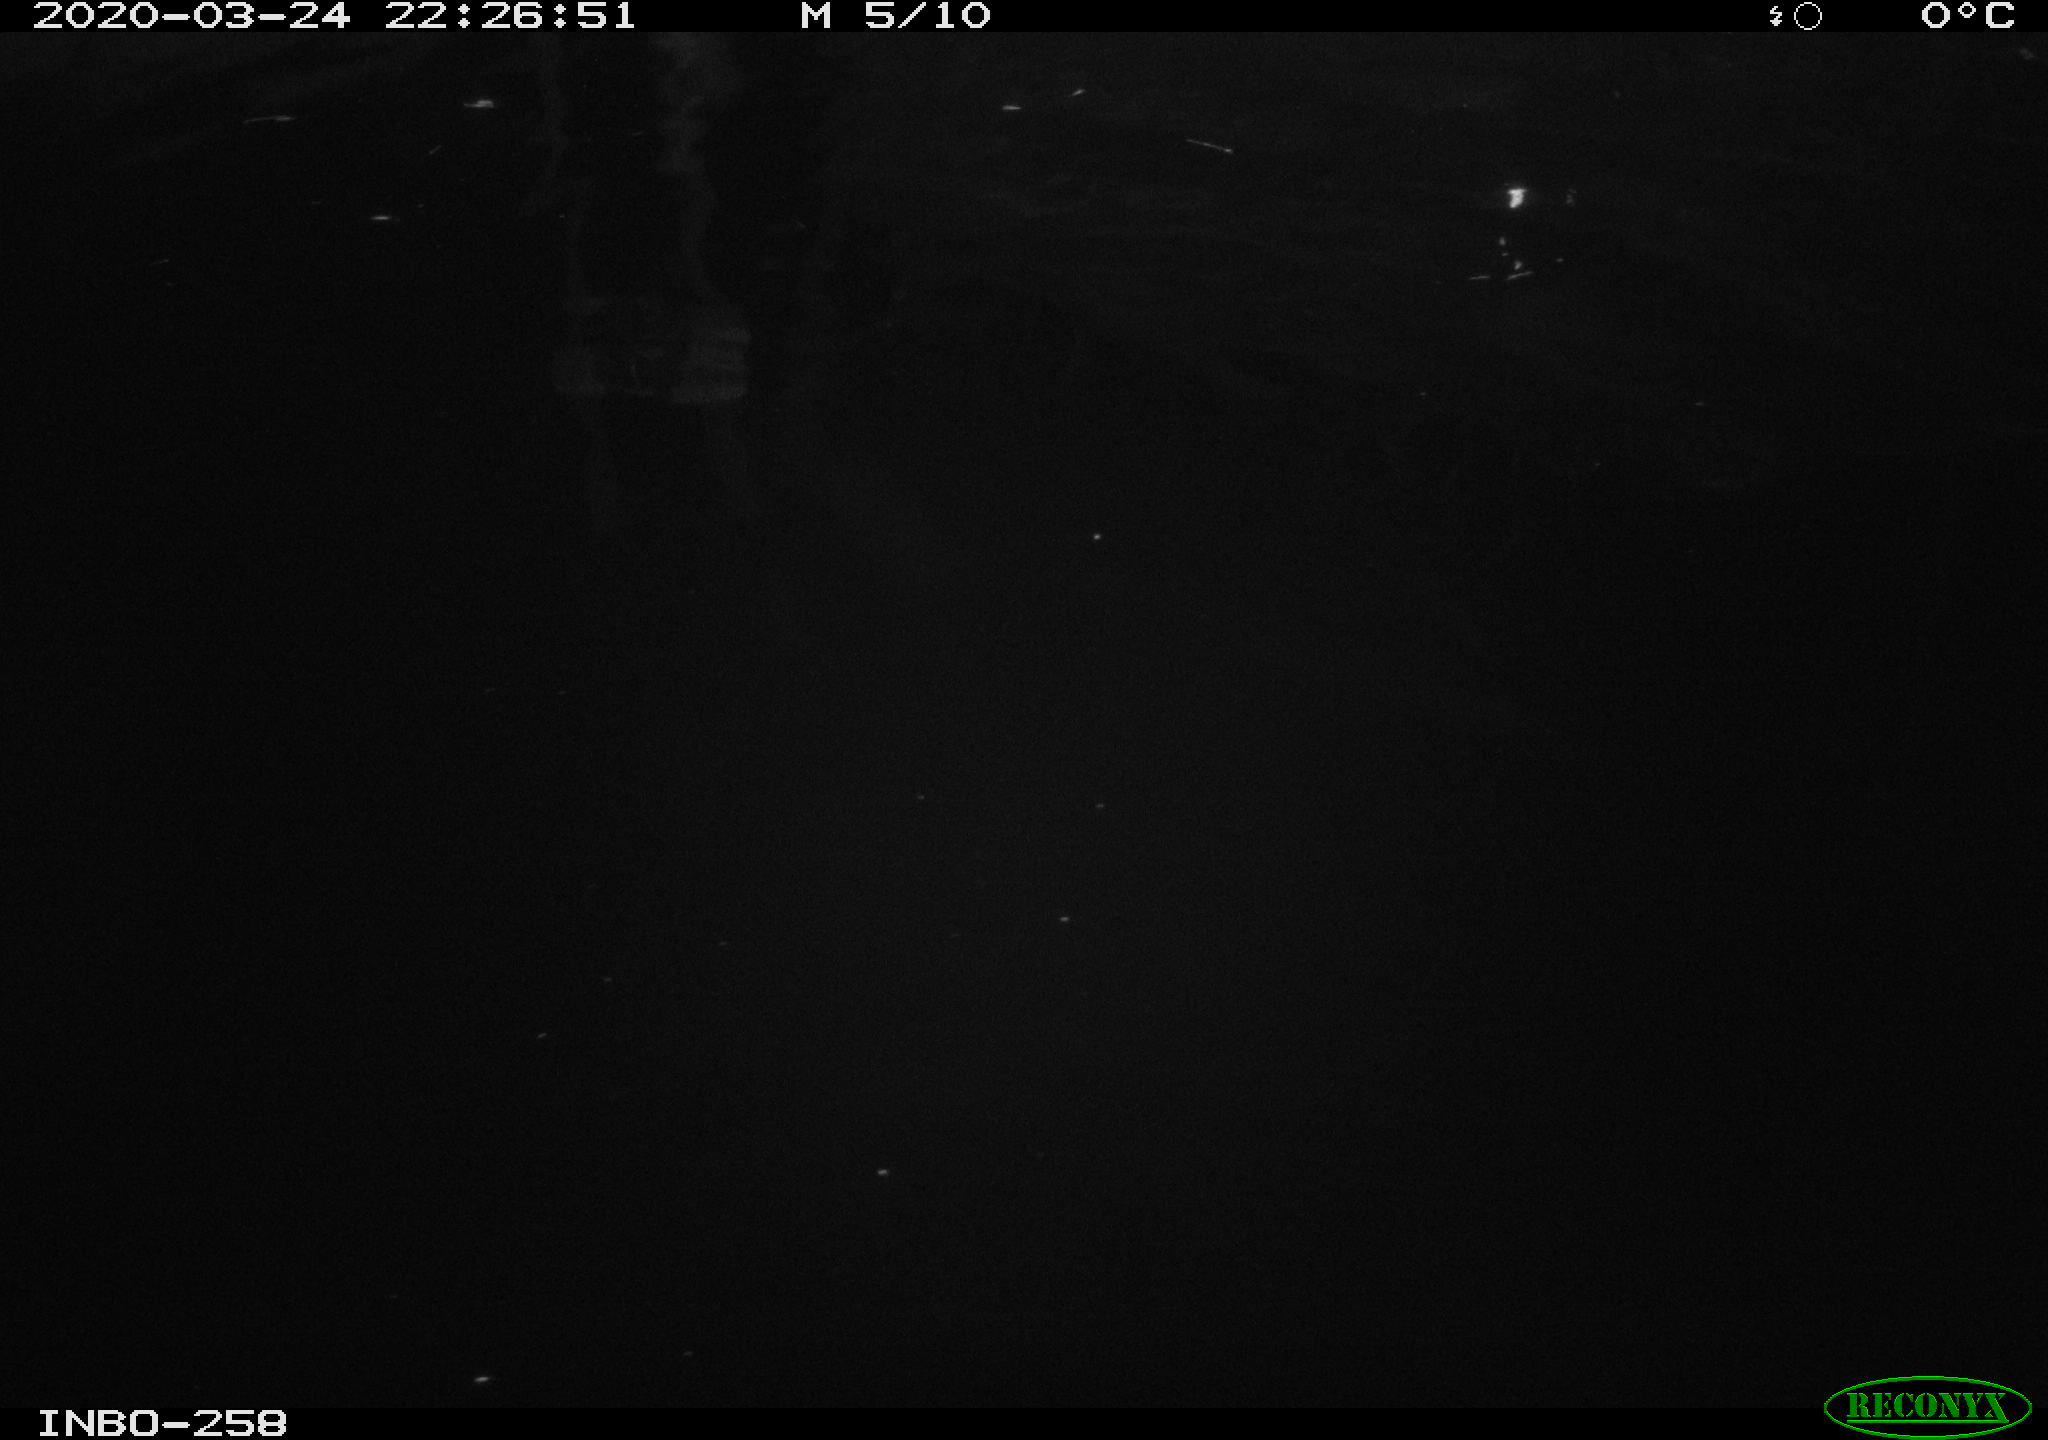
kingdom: Animalia
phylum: Chordata
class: Aves
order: Anseriformes
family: Anatidae
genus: Anas
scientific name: Anas platyrhynchos
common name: Mallard
